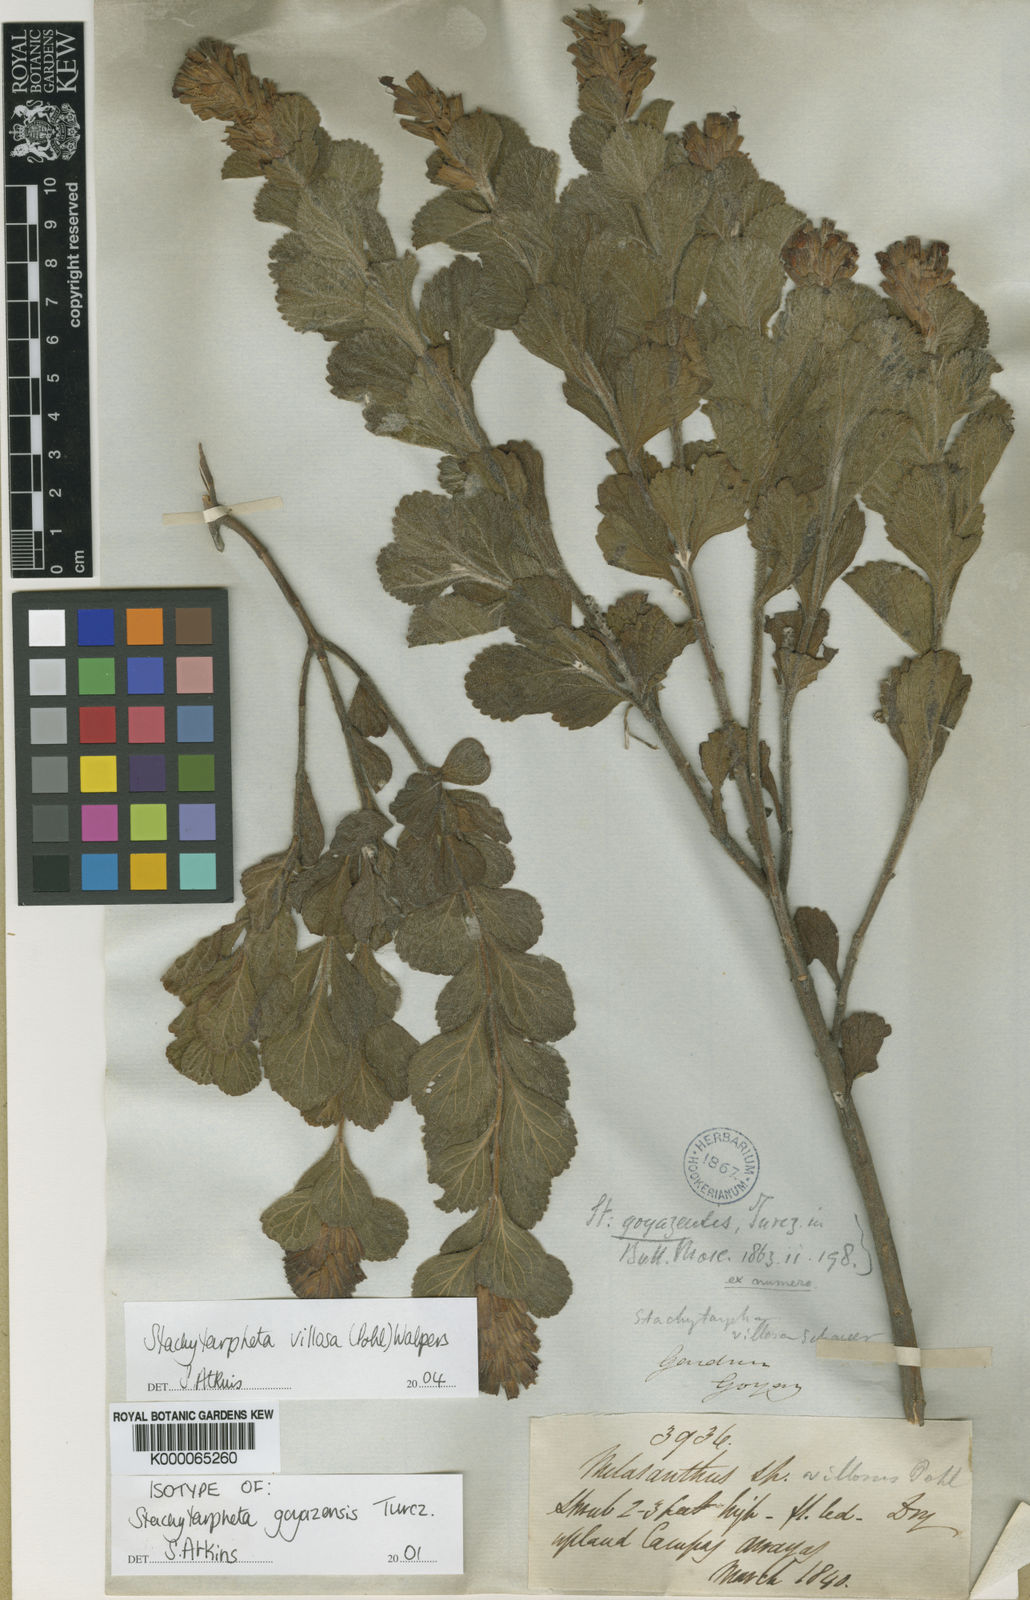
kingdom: Plantae
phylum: Tracheophyta
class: Magnoliopsida
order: Lamiales
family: Verbenaceae
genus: Stachytarpheta
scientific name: Stachytarpheta
